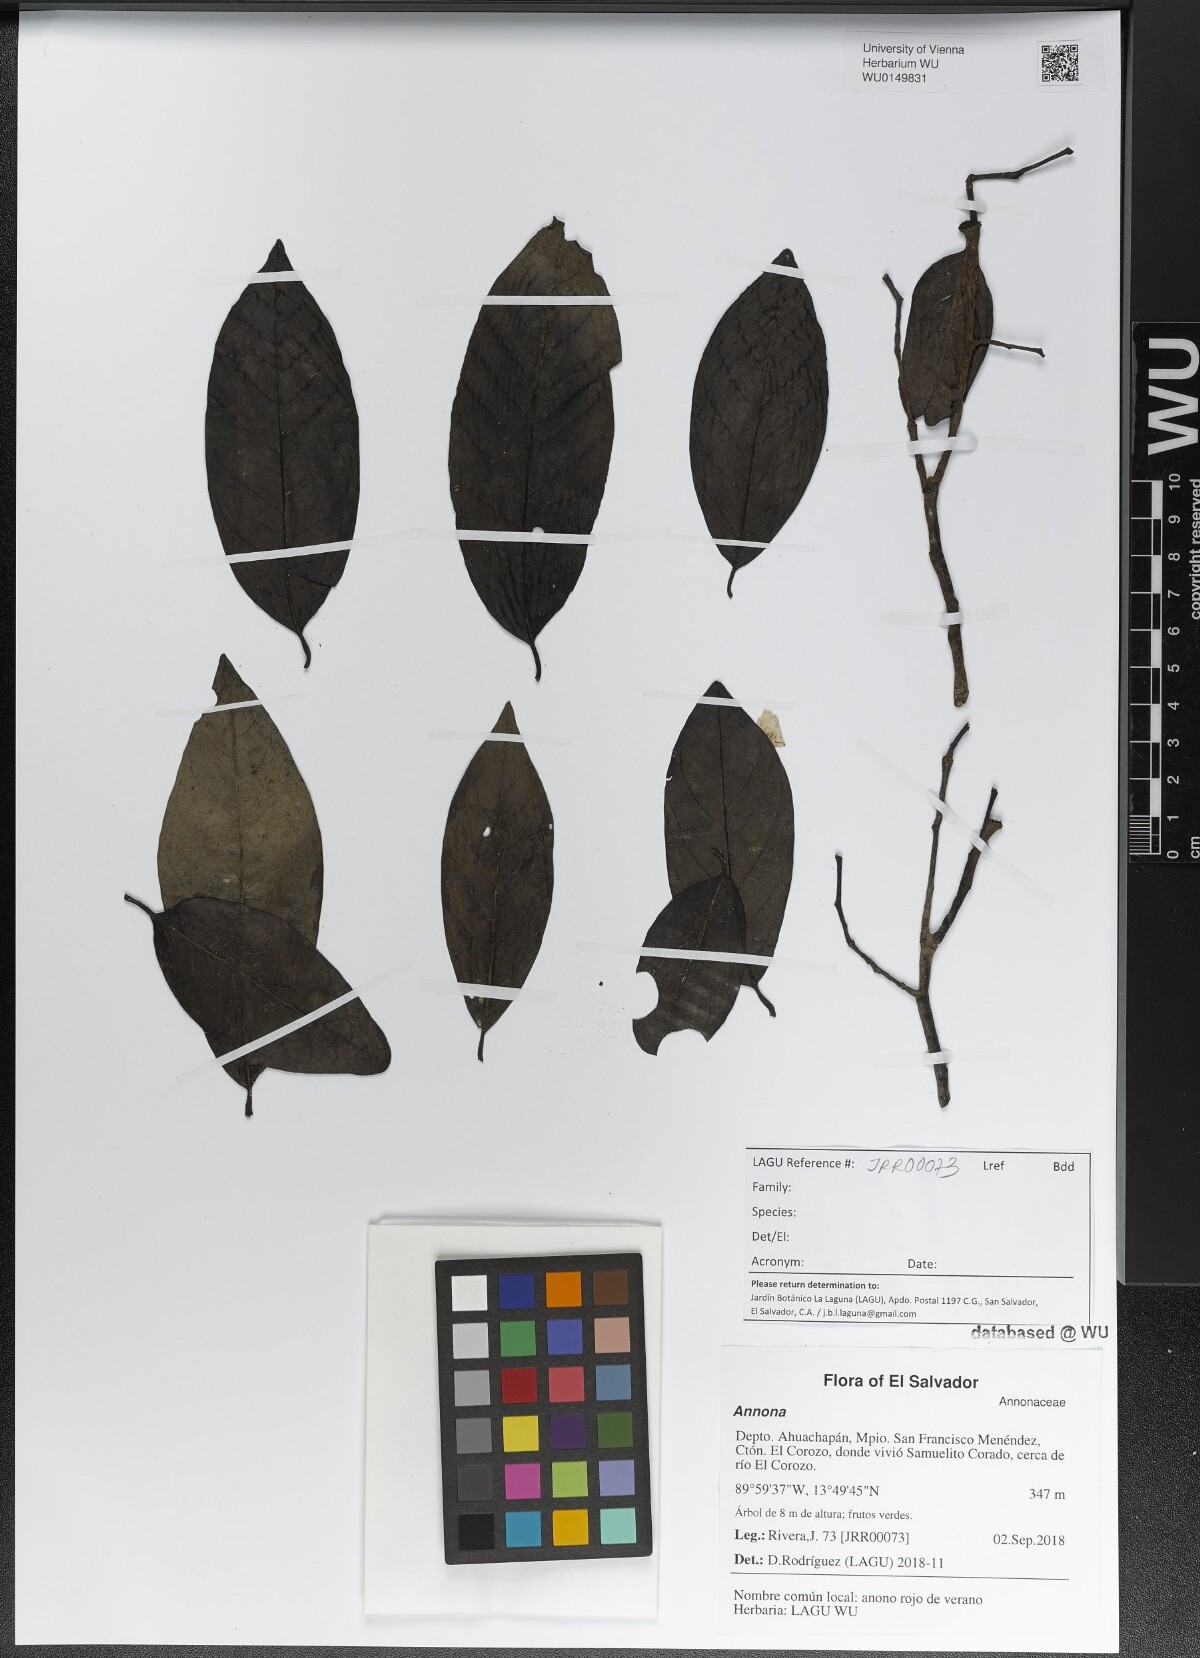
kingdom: Plantae
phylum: Tracheophyta
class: Magnoliopsida
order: Magnoliales
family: Annonaceae
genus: Annona
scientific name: Annona
